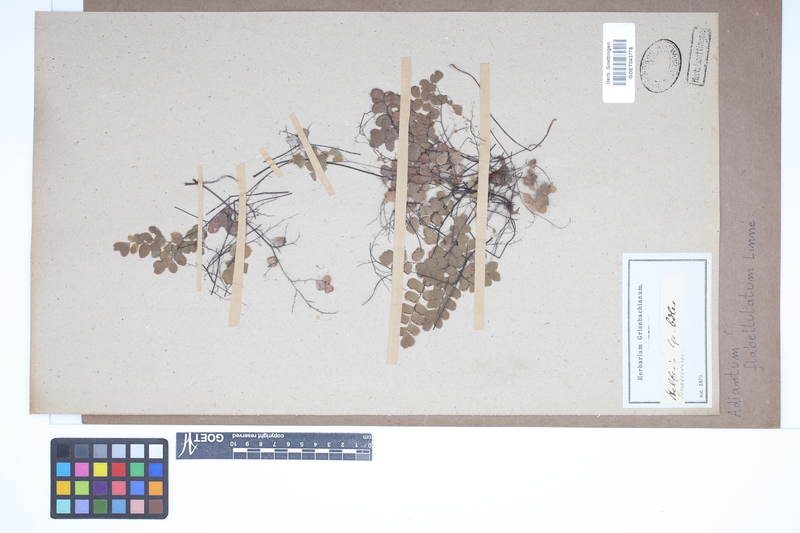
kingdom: Plantae
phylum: Tracheophyta
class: Polypodiopsida
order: Polypodiales
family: Pteridaceae
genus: Adiantum
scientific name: Adiantum flabellulatum
